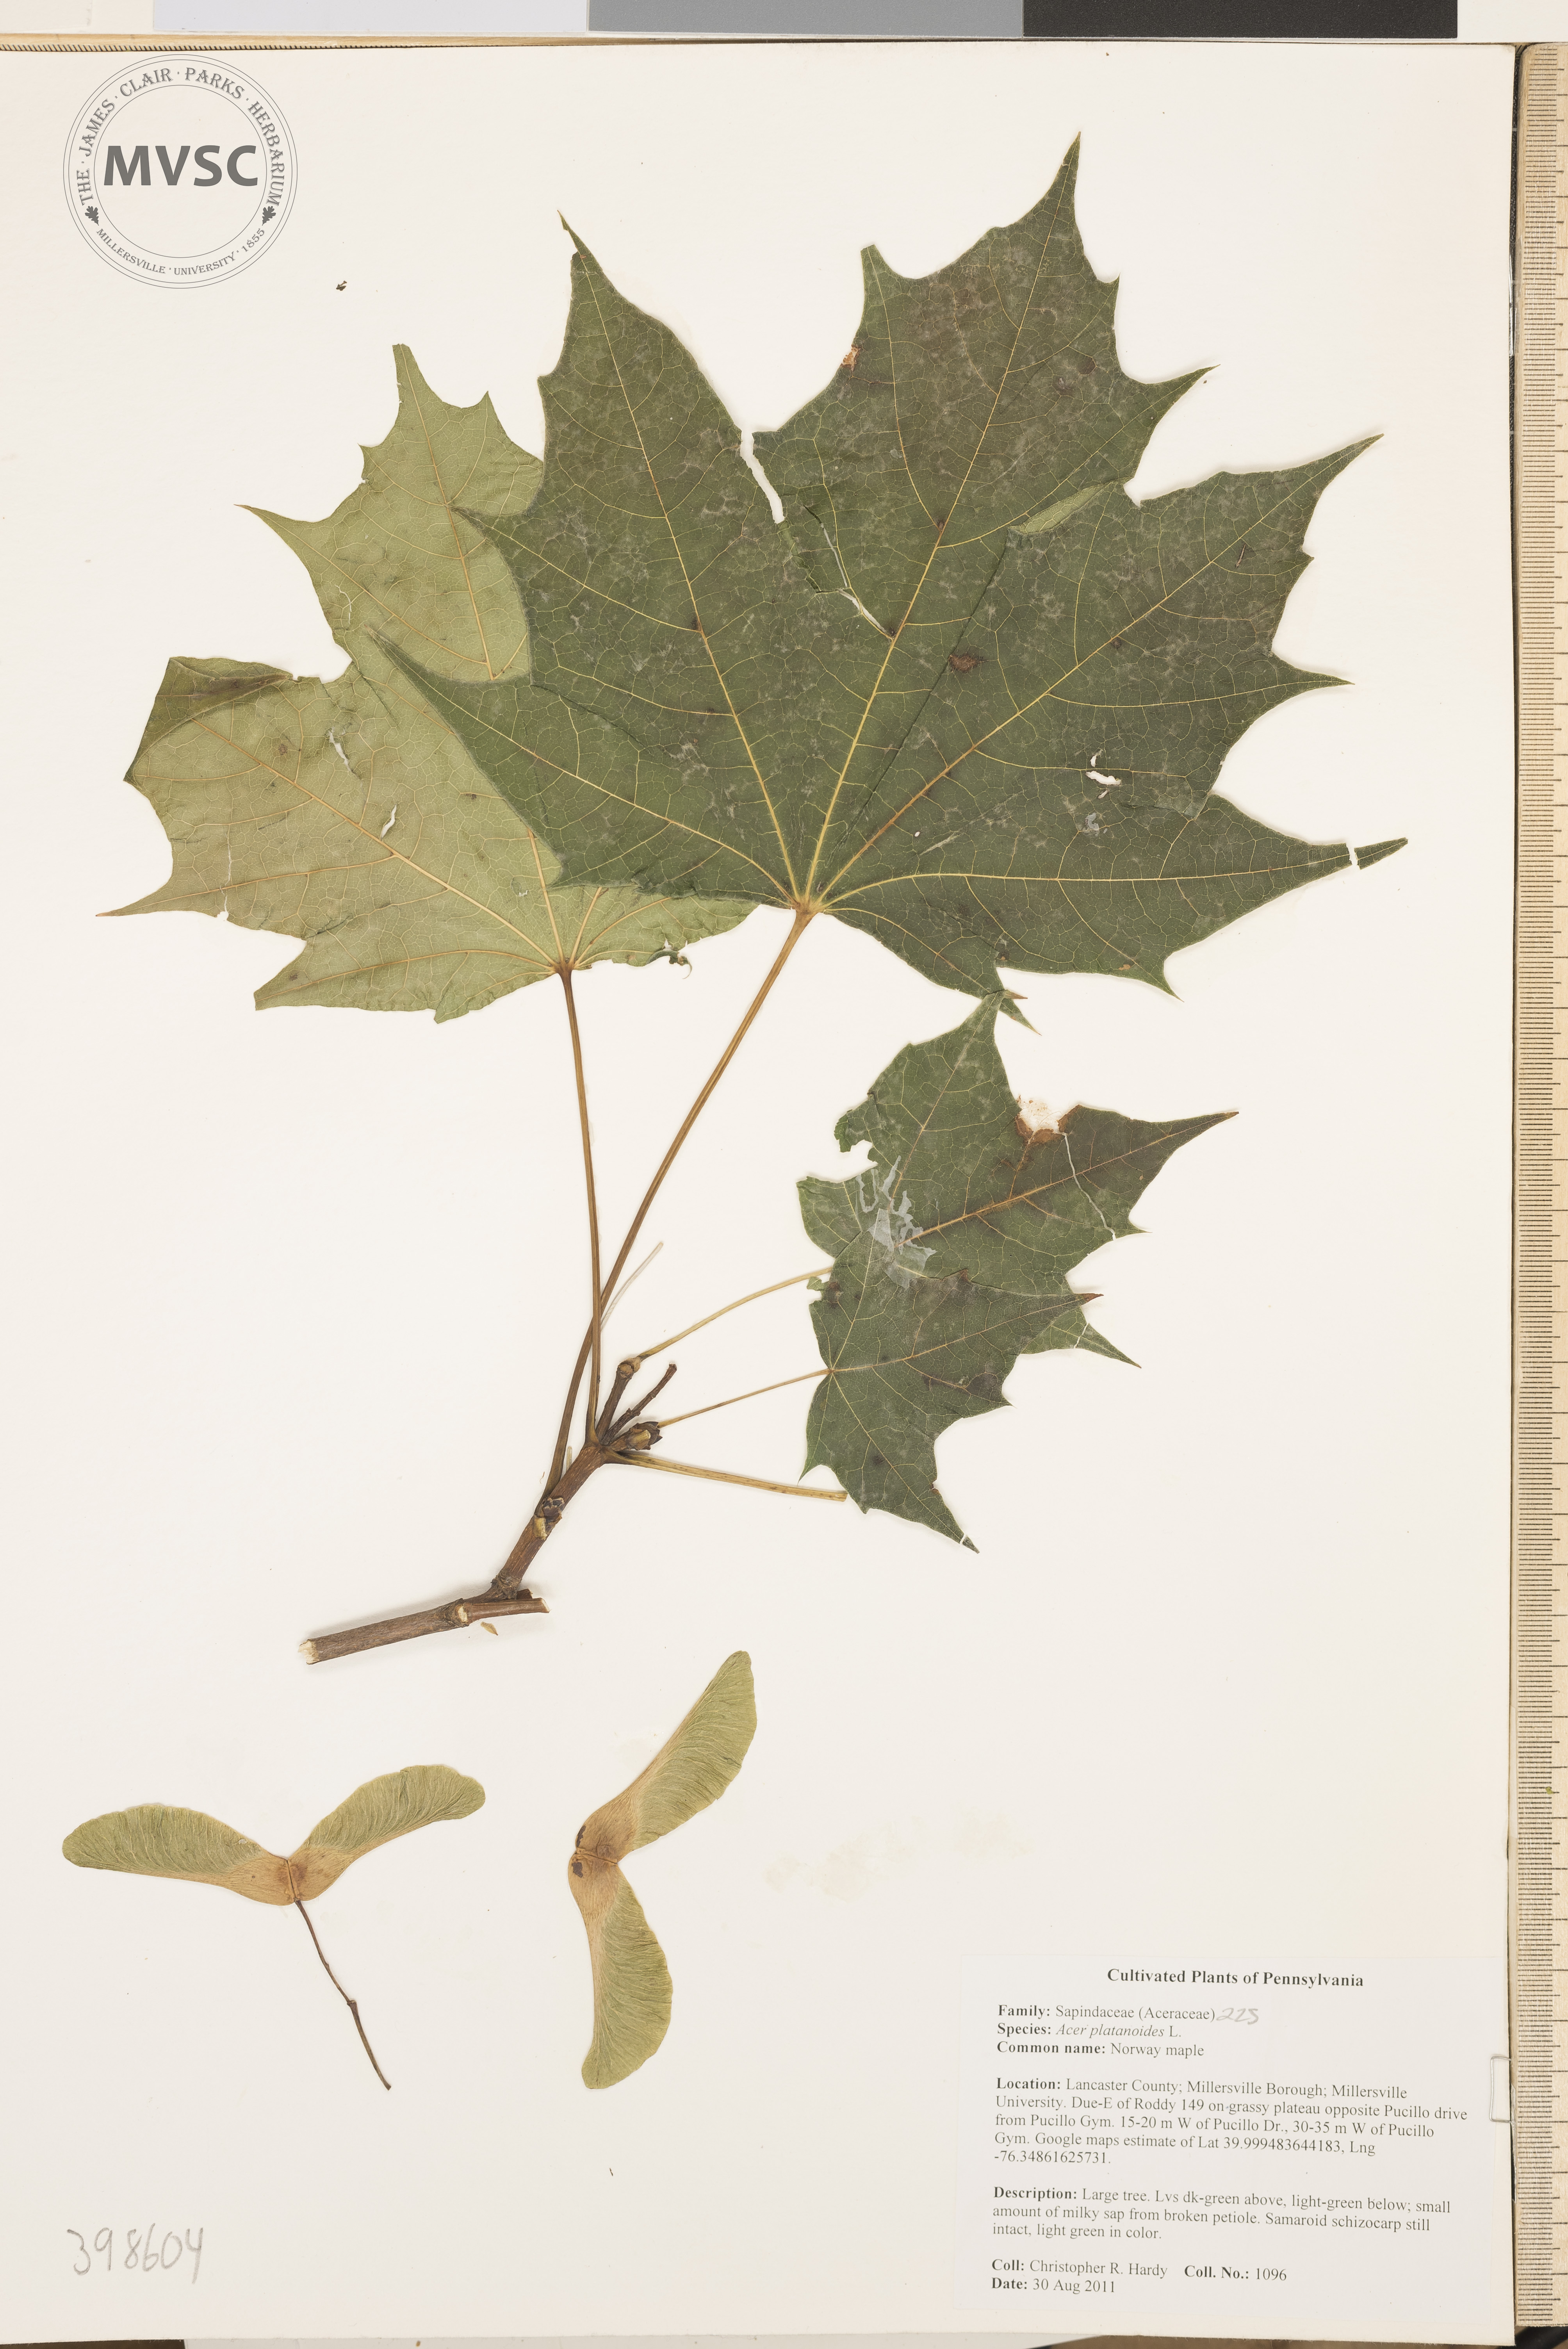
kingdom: Plantae
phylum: Tracheophyta
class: Magnoliopsida
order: Sapindales
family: Sapindaceae
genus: Acer
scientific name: Acer platanoides
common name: Norway maple
